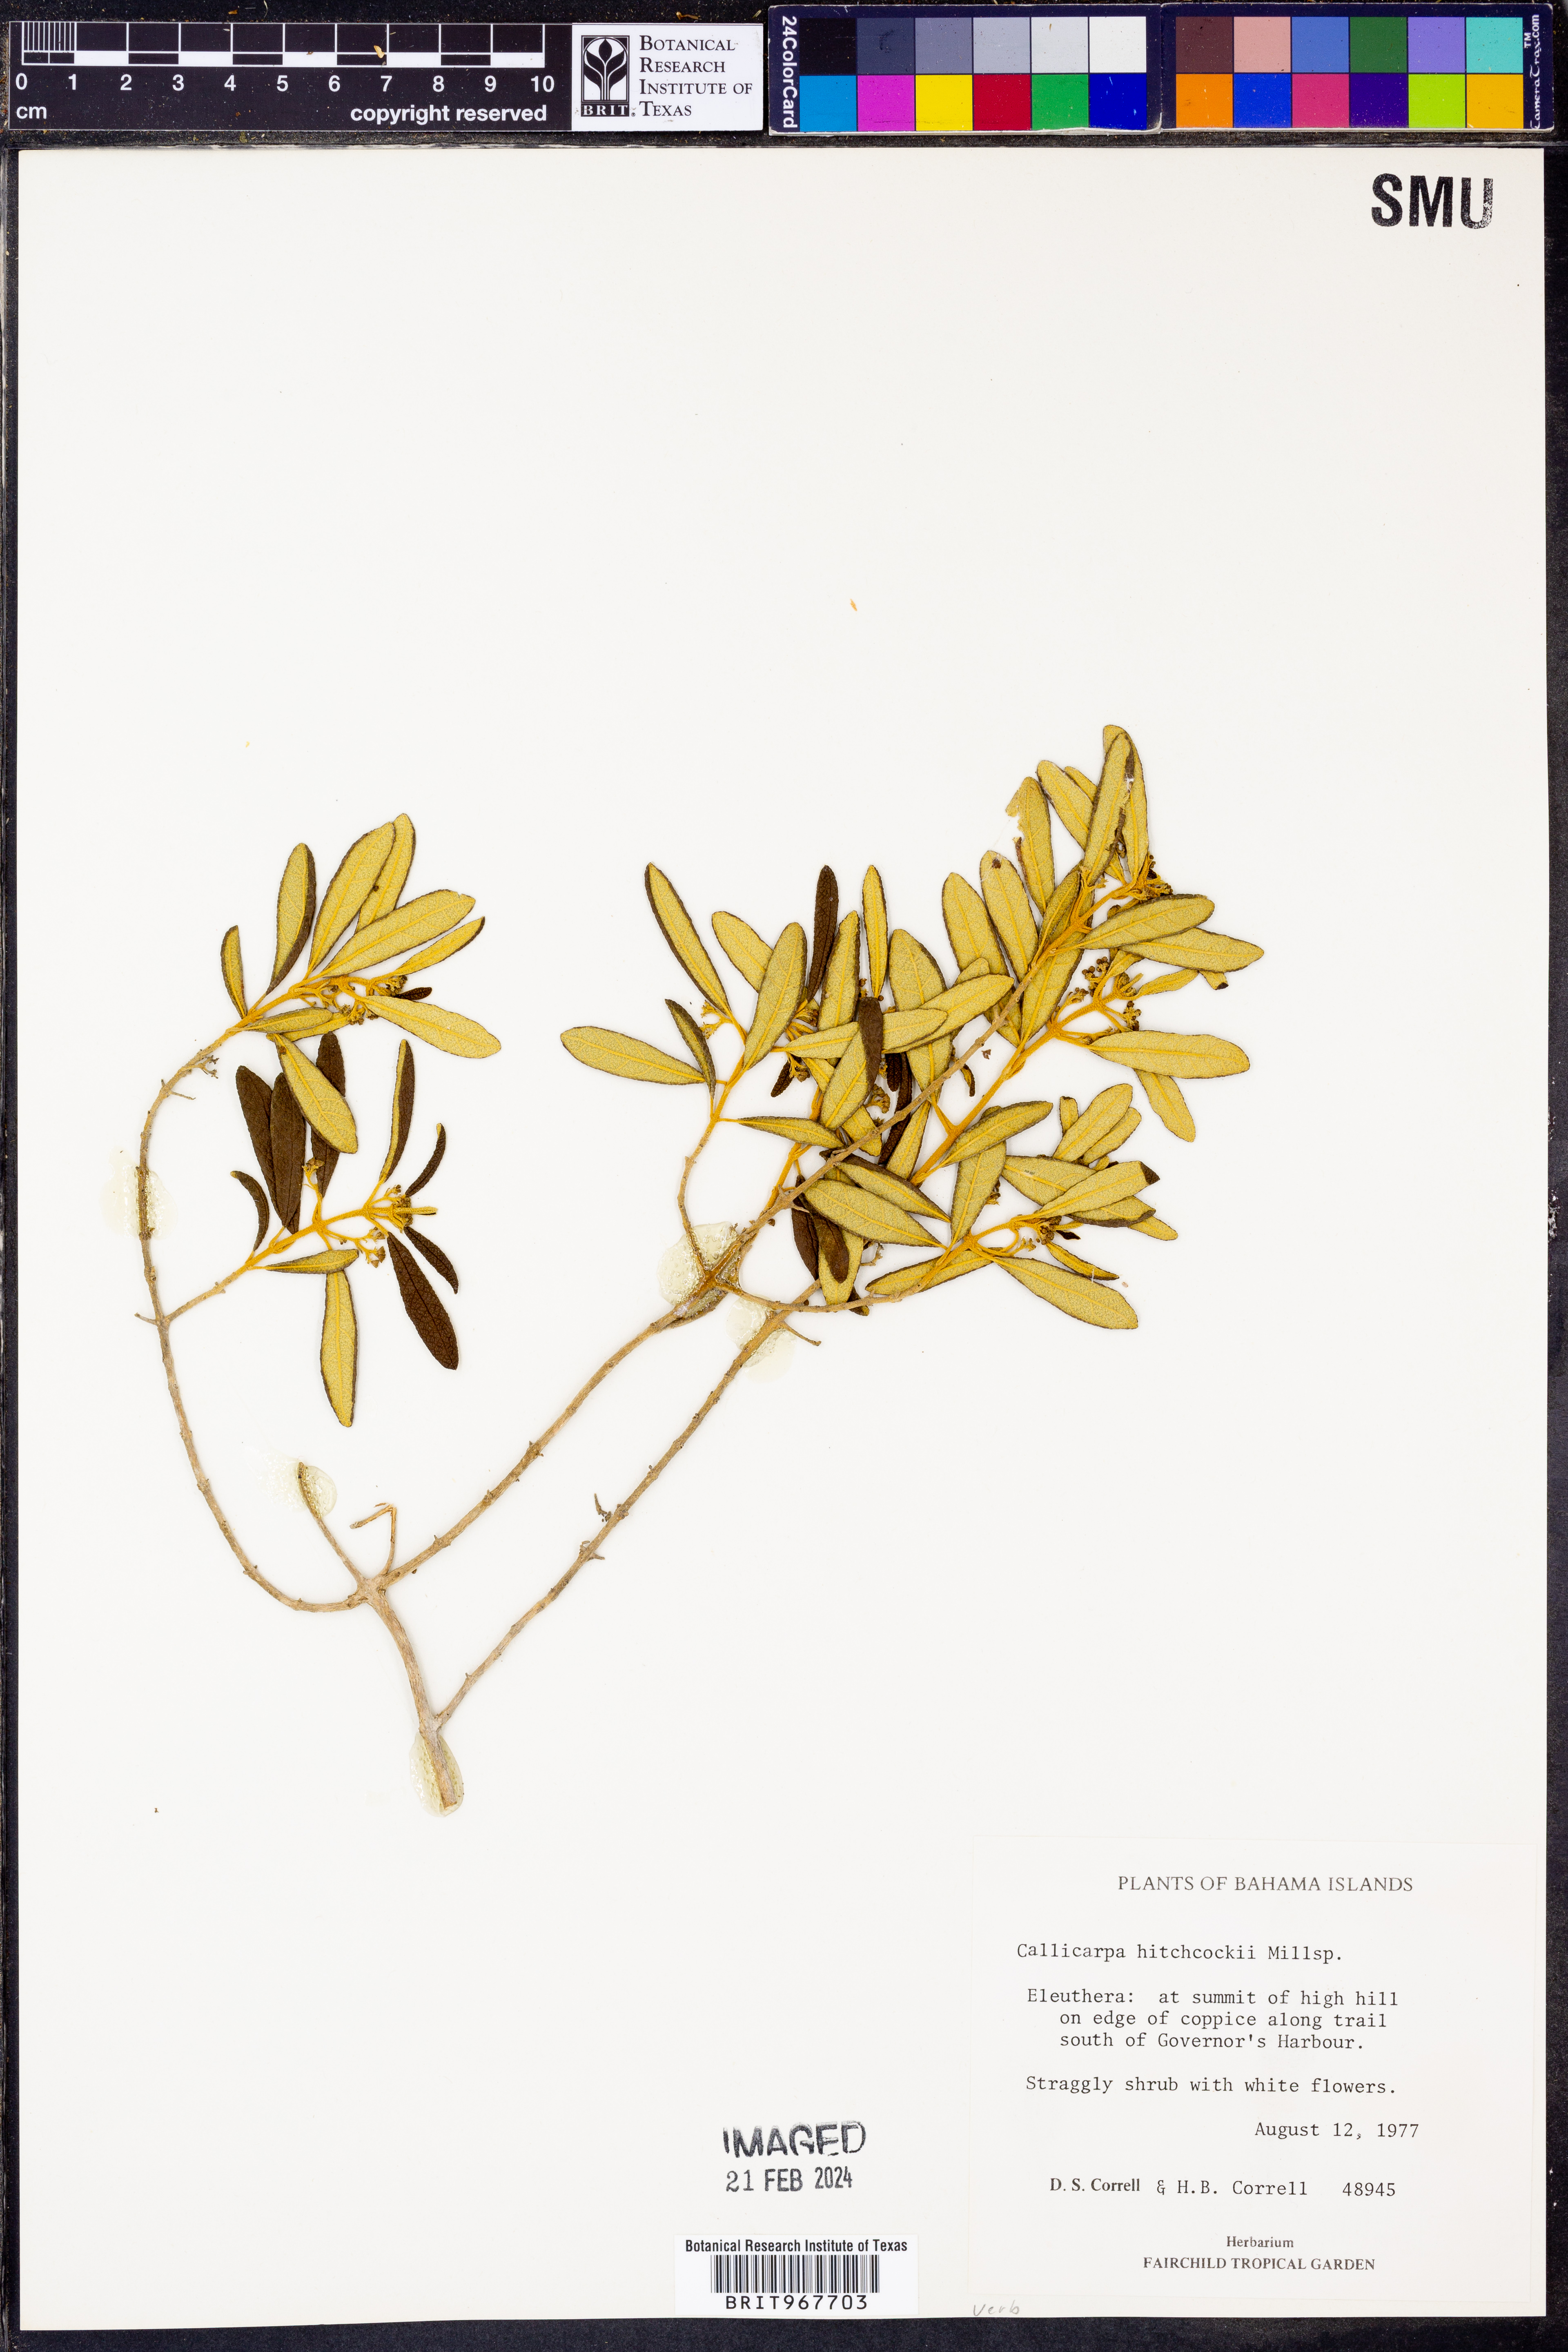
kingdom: Plantae
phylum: Tracheophyta
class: Magnoliopsida
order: Lamiales
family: Lamiaceae
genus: Callicarpa
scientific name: Callicarpa
